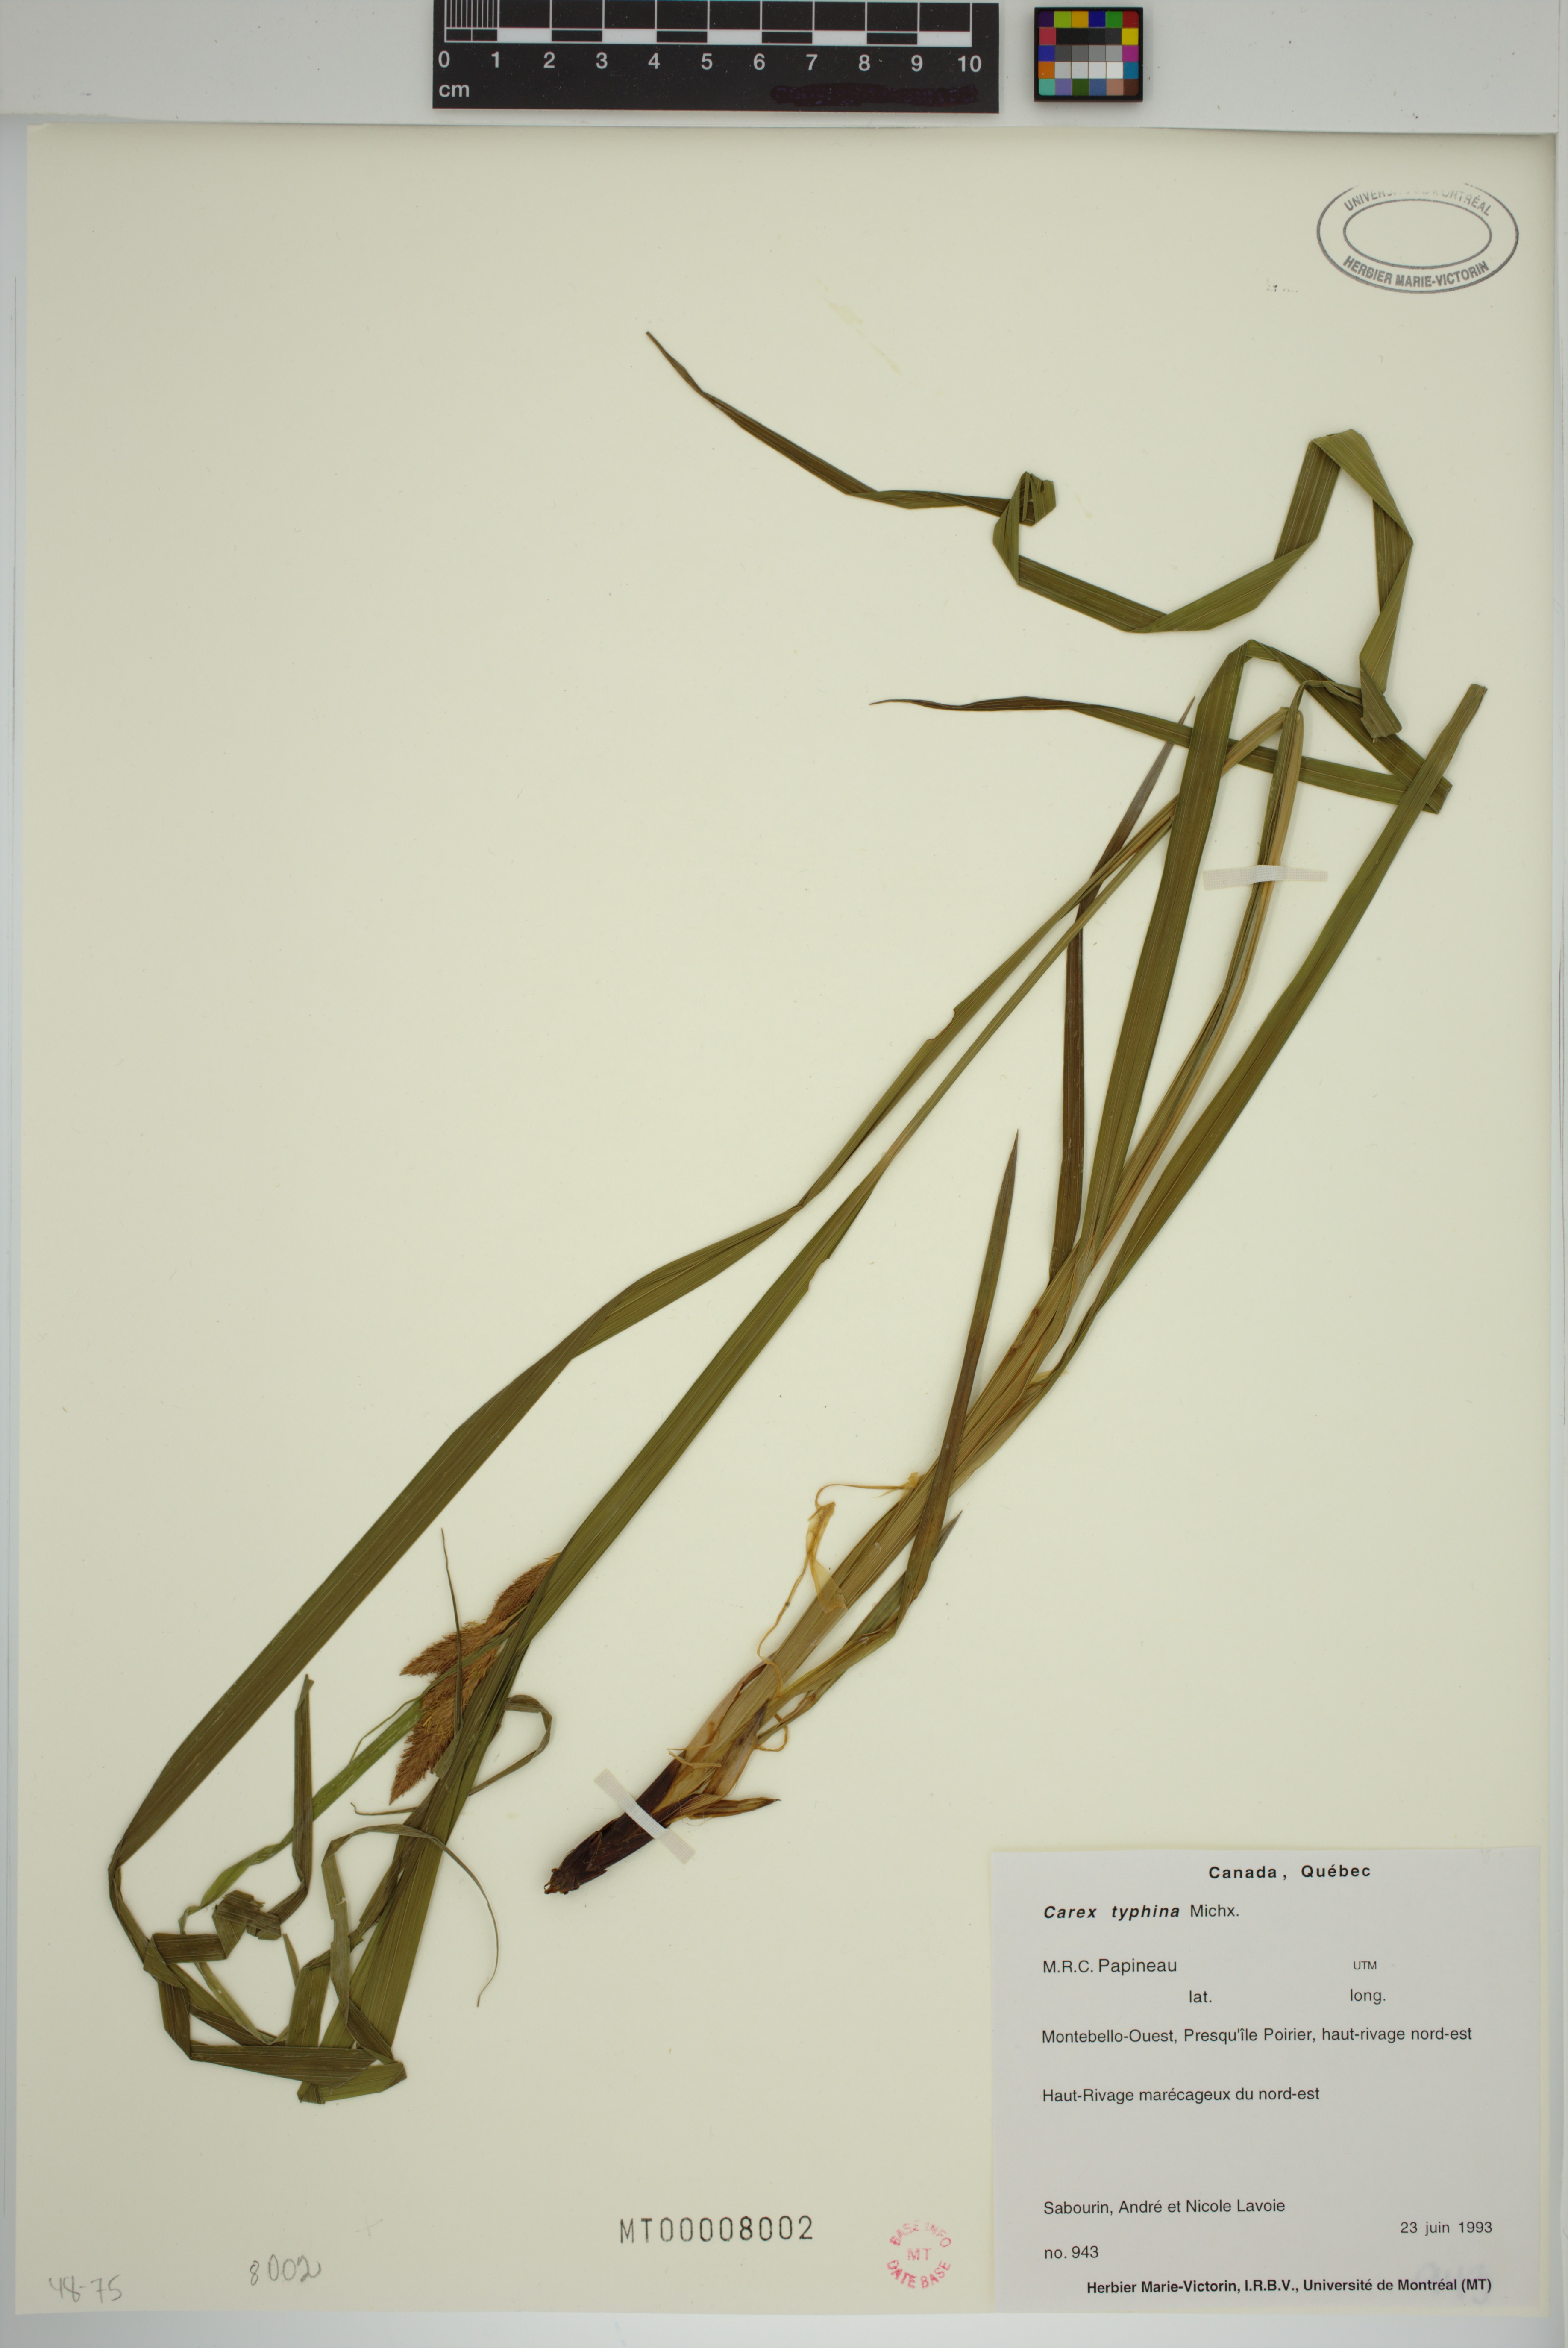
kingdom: Plantae
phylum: Tracheophyta
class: Liliopsida
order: Poales
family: Cyperaceae
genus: Carex
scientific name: Carex typhina
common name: Cattail sedge
